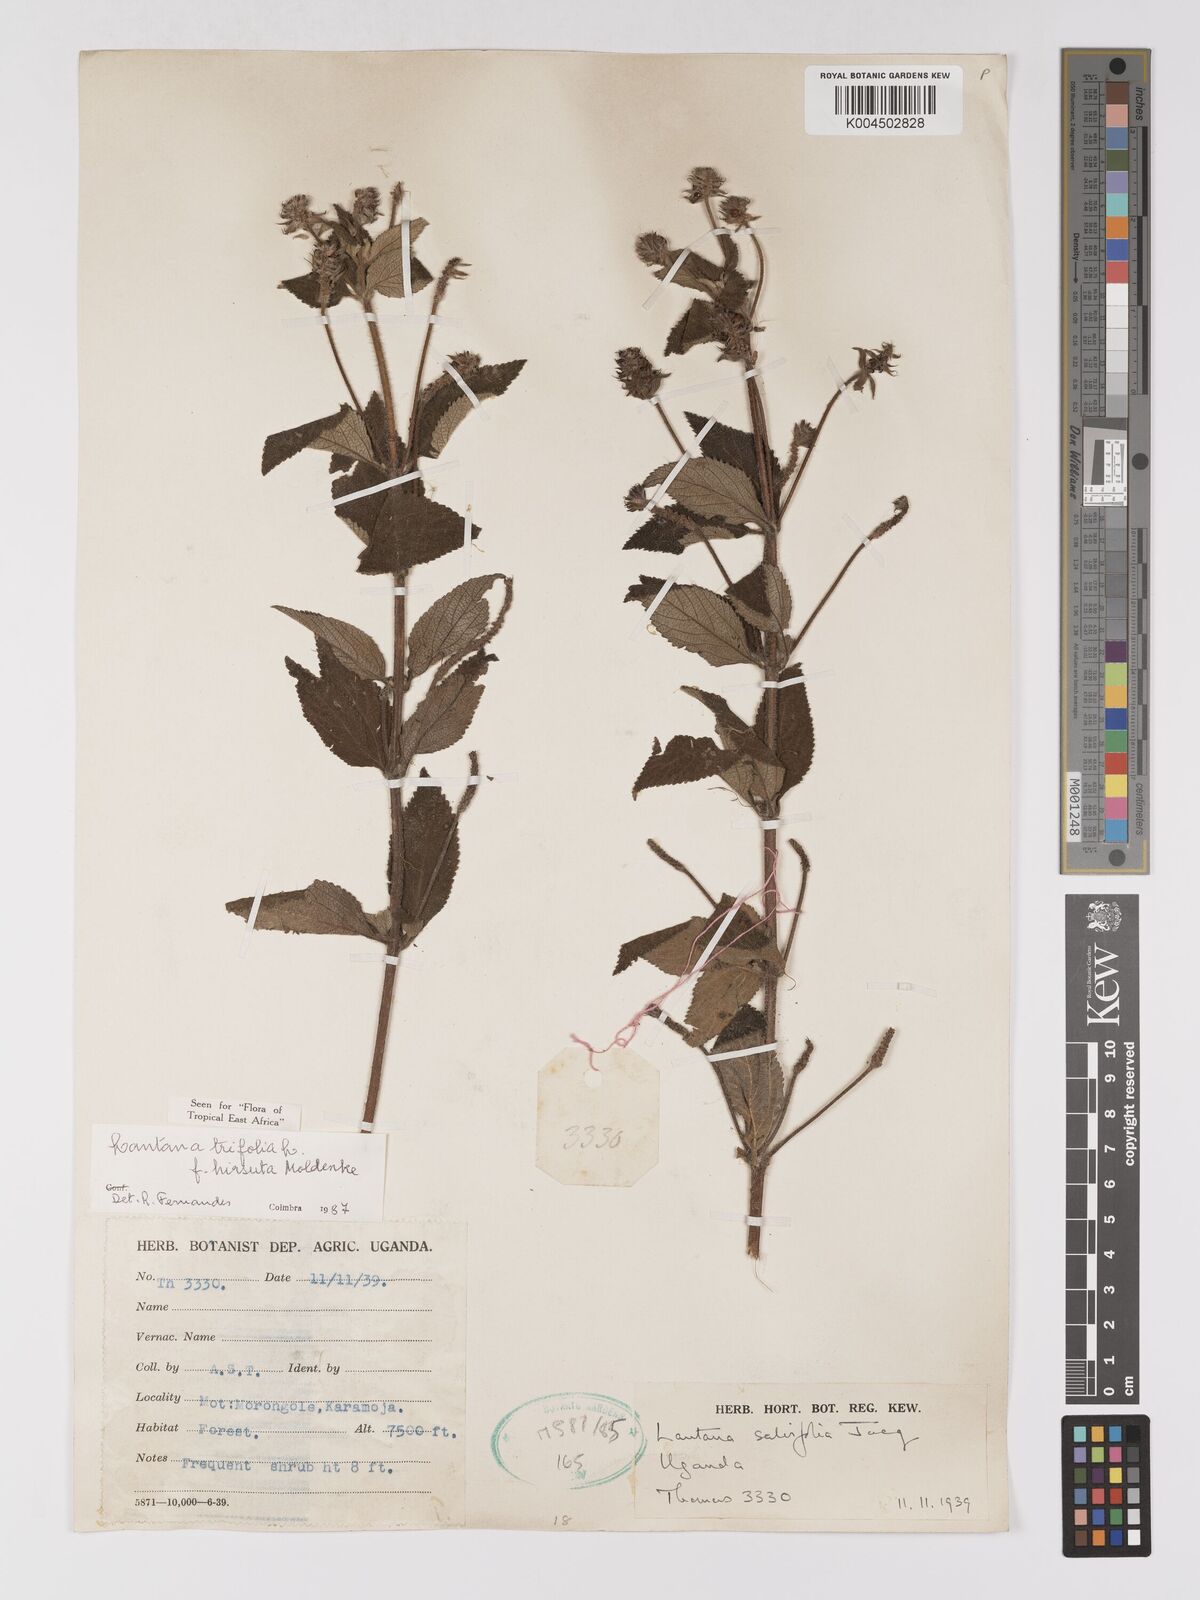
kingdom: Plantae
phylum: Tracheophyta
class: Magnoliopsida
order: Lamiales
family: Verbenaceae
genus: Lantana
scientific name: Lantana trifolia
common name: Sweet-sage
